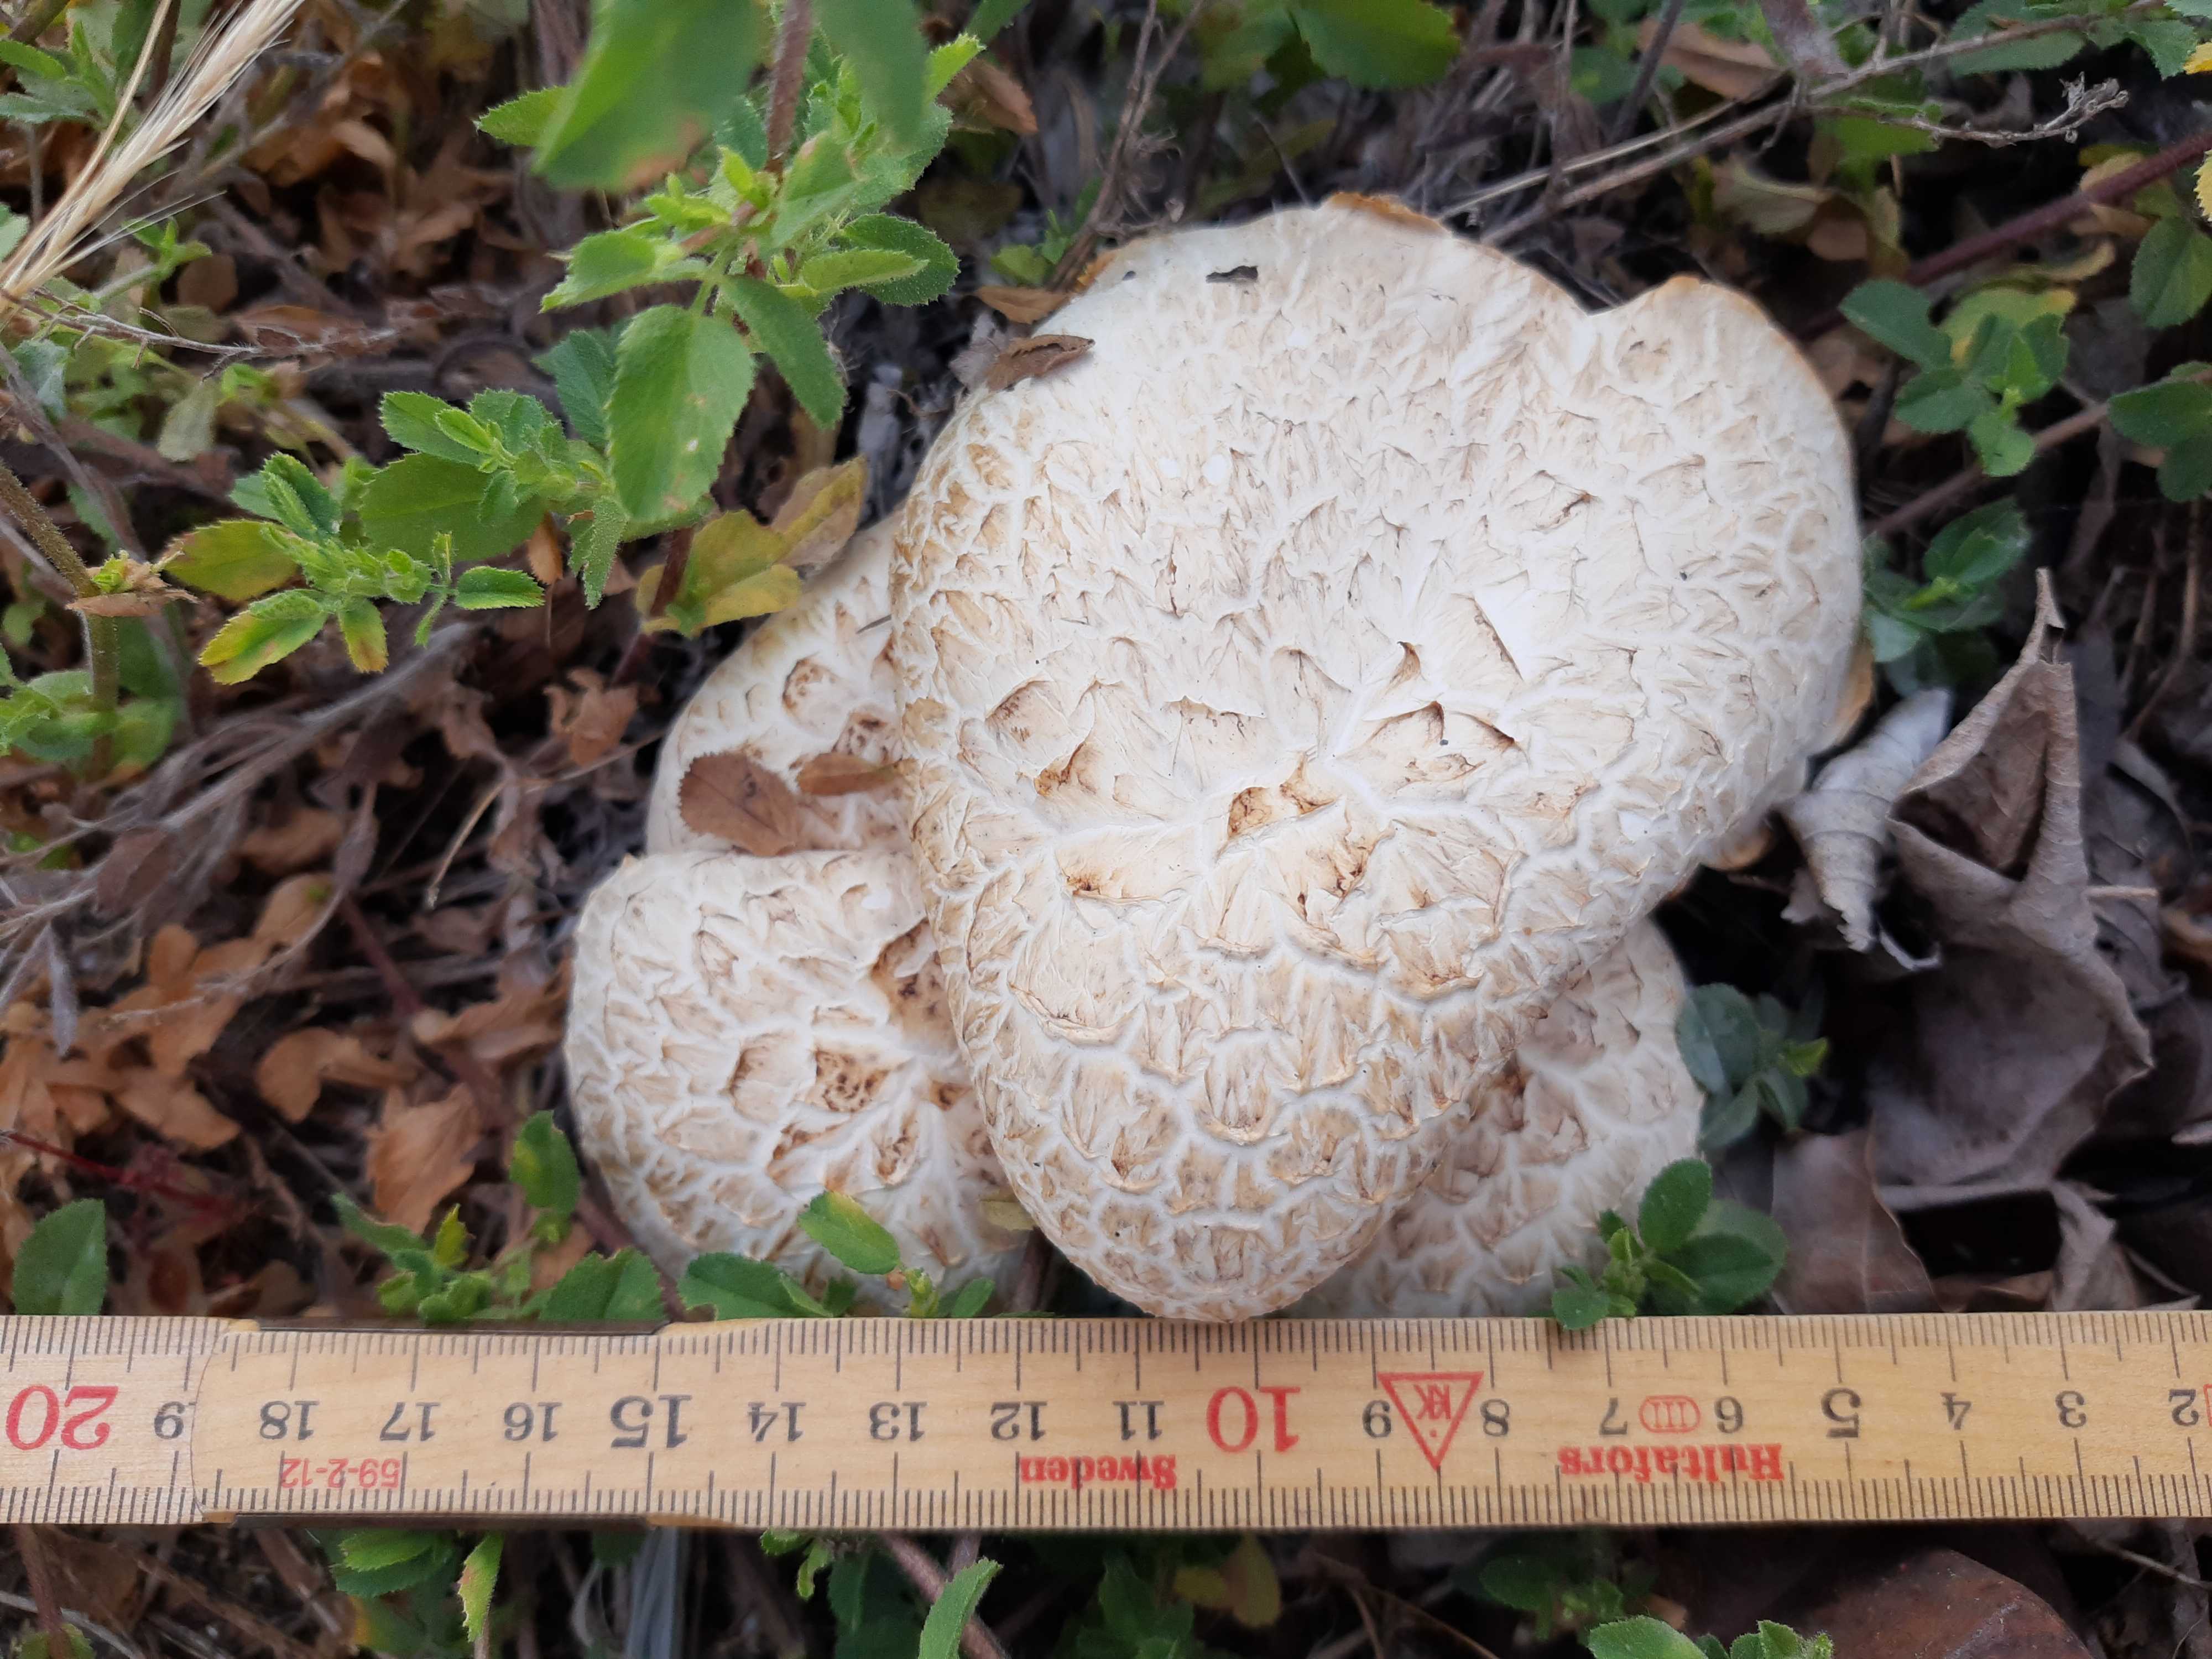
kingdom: Fungi
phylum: Basidiomycota
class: Agaricomycetes
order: Gloeophyllales
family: Gloeophyllaceae
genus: Neolentinus
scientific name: Neolentinus lepideus
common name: skællet sejhat
